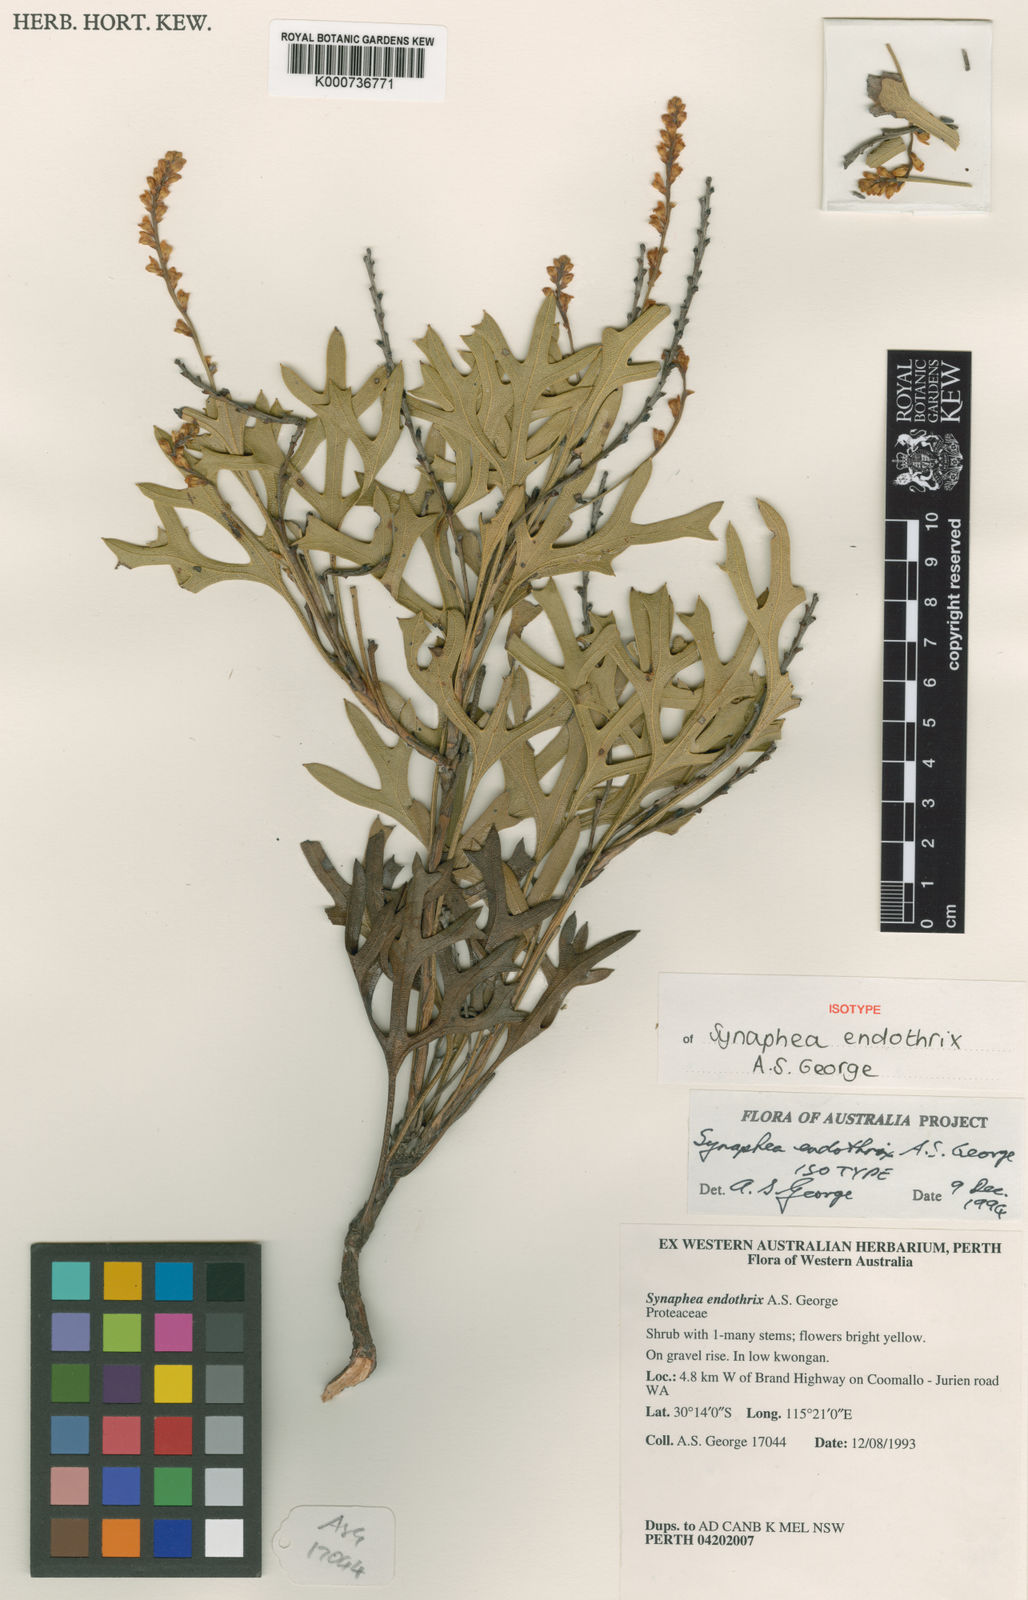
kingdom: Plantae
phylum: Tracheophyta
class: Magnoliopsida
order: Proteales
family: Proteaceae
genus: Synaphea
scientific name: Synaphea endothrix
